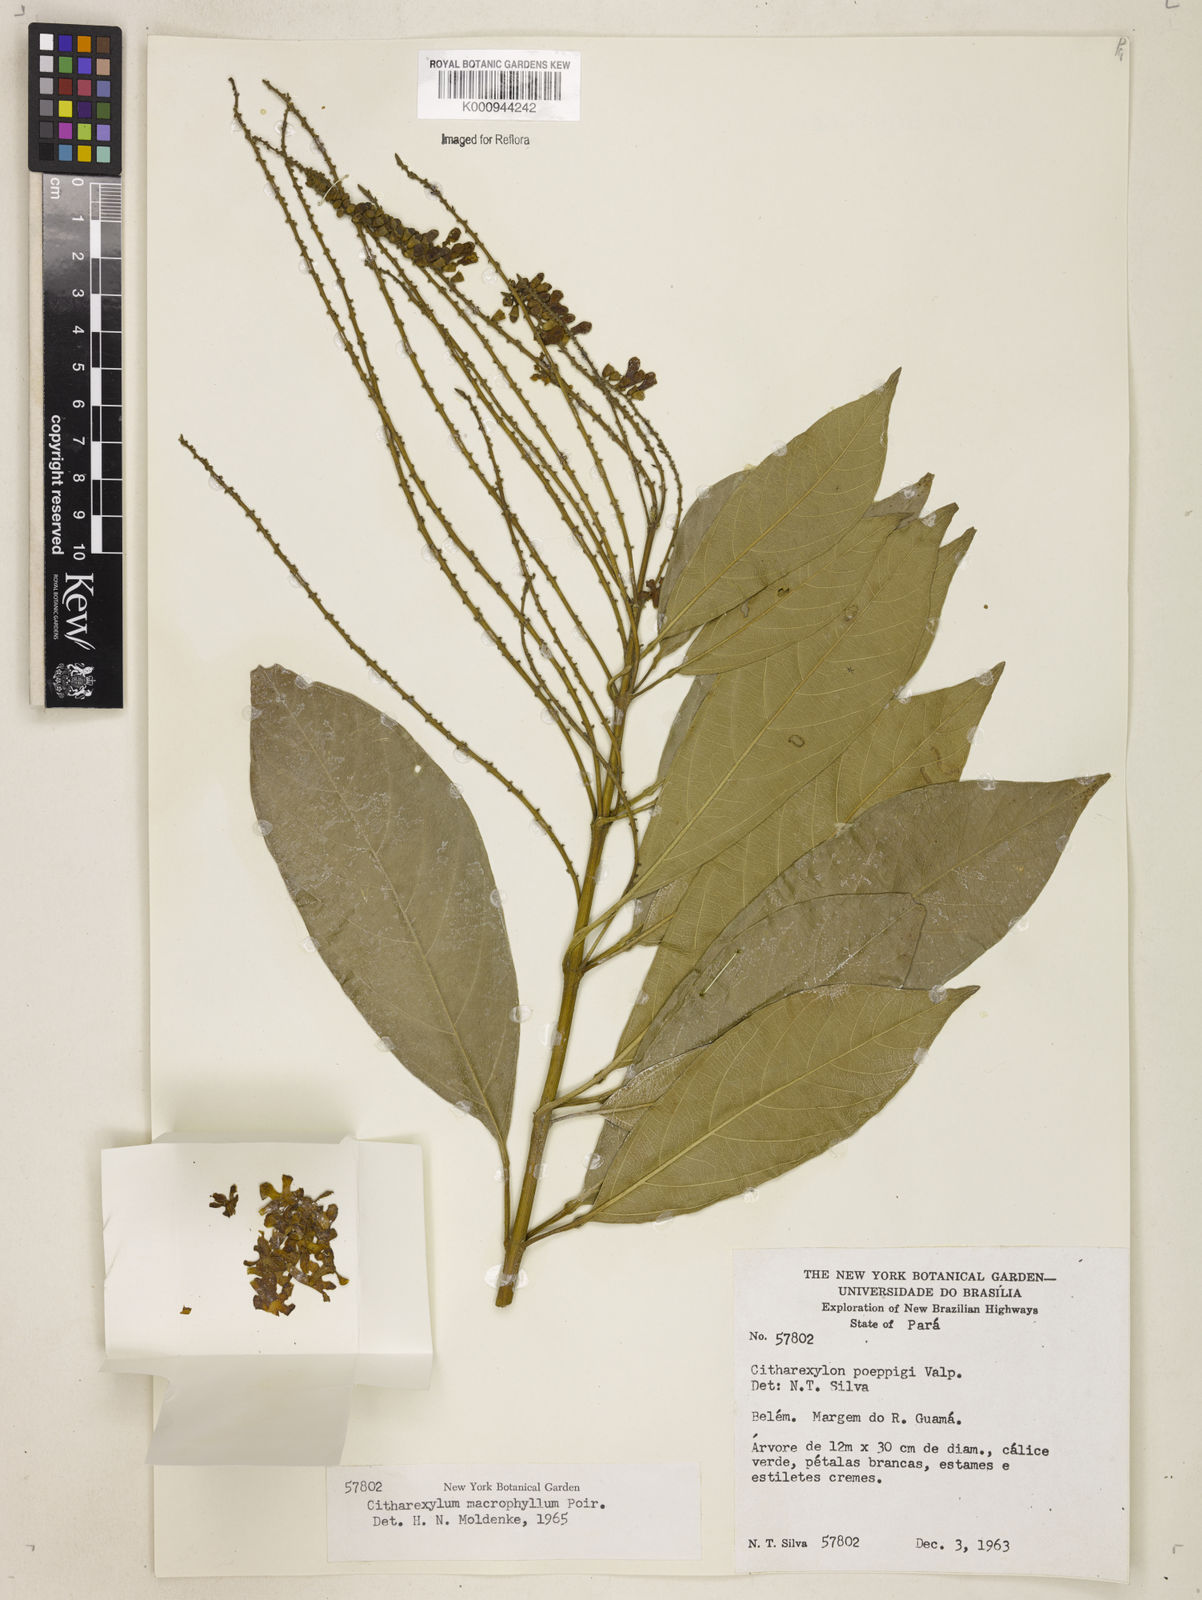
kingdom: Plantae
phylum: Tracheophyta
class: Magnoliopsida
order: Lamiales
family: Verbenaceae
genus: Citharexylum
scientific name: Citharexylum spinosum
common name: Fiddlewood
